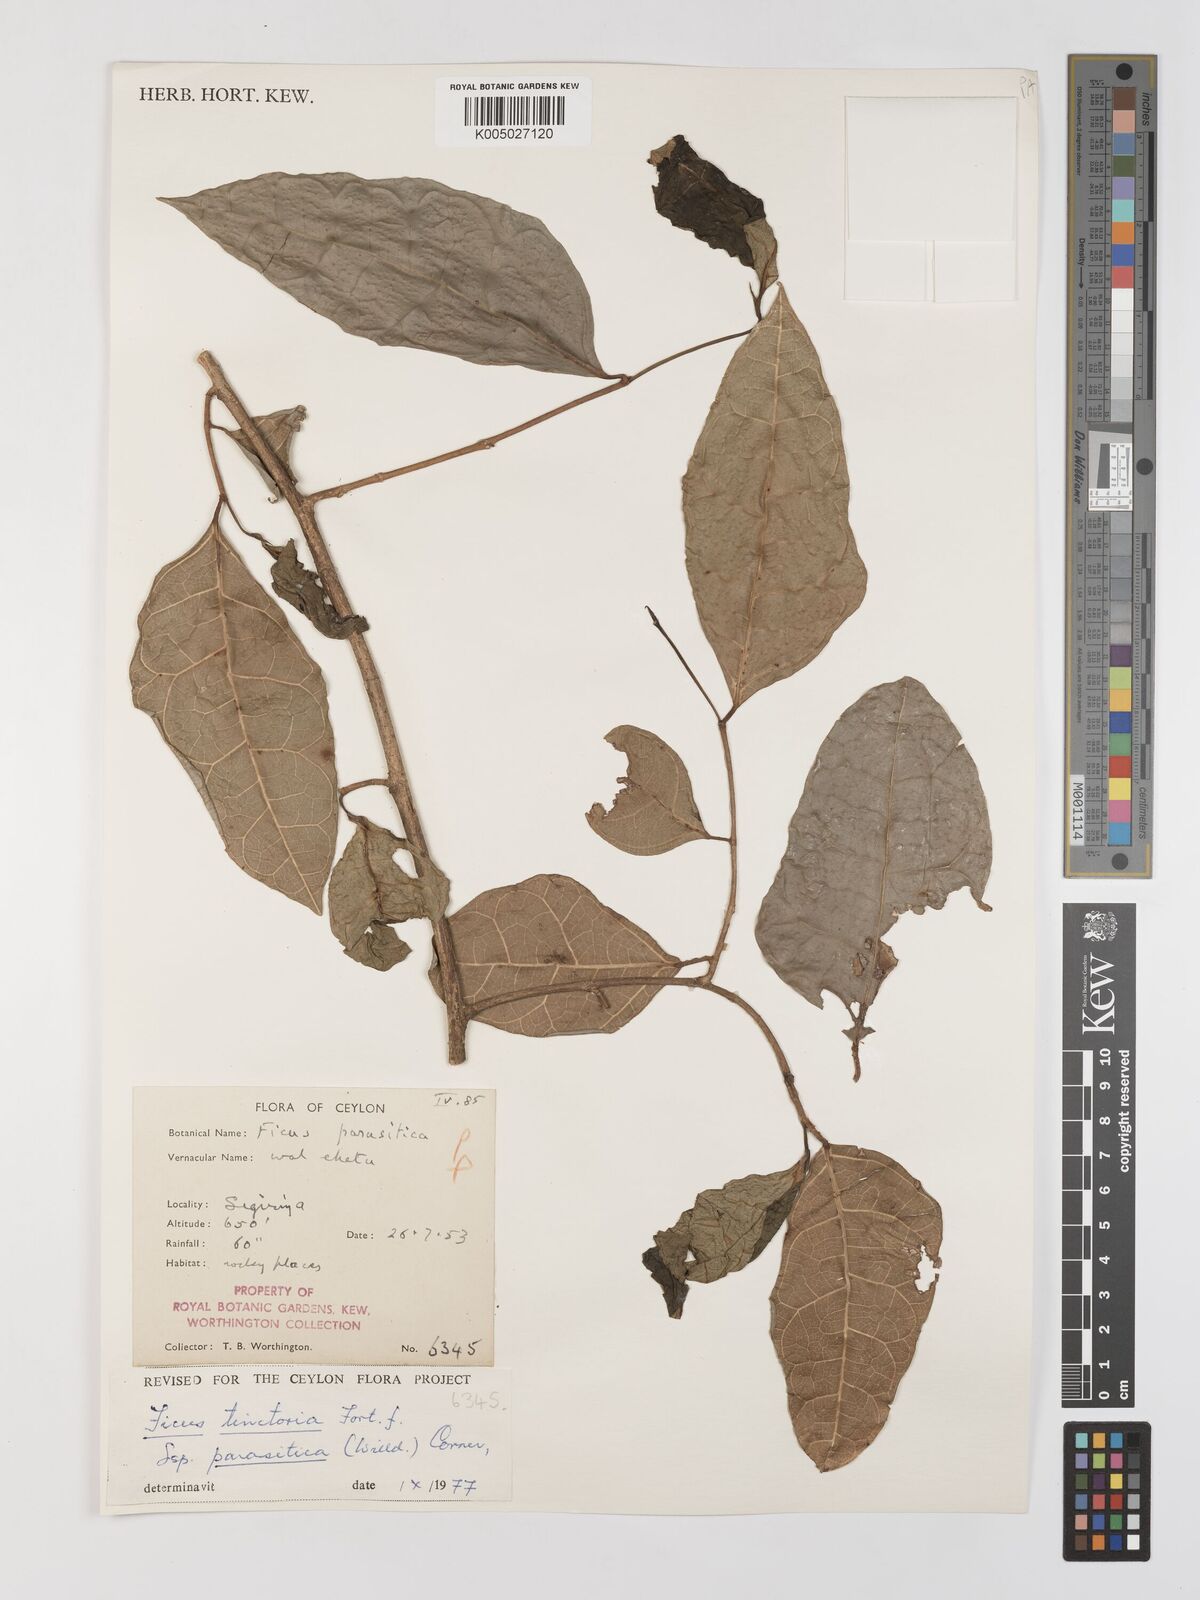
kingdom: Plantae
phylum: Tracheophyta
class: Magnoliopsida
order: Rosales
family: Moraceae
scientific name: Moraceae
